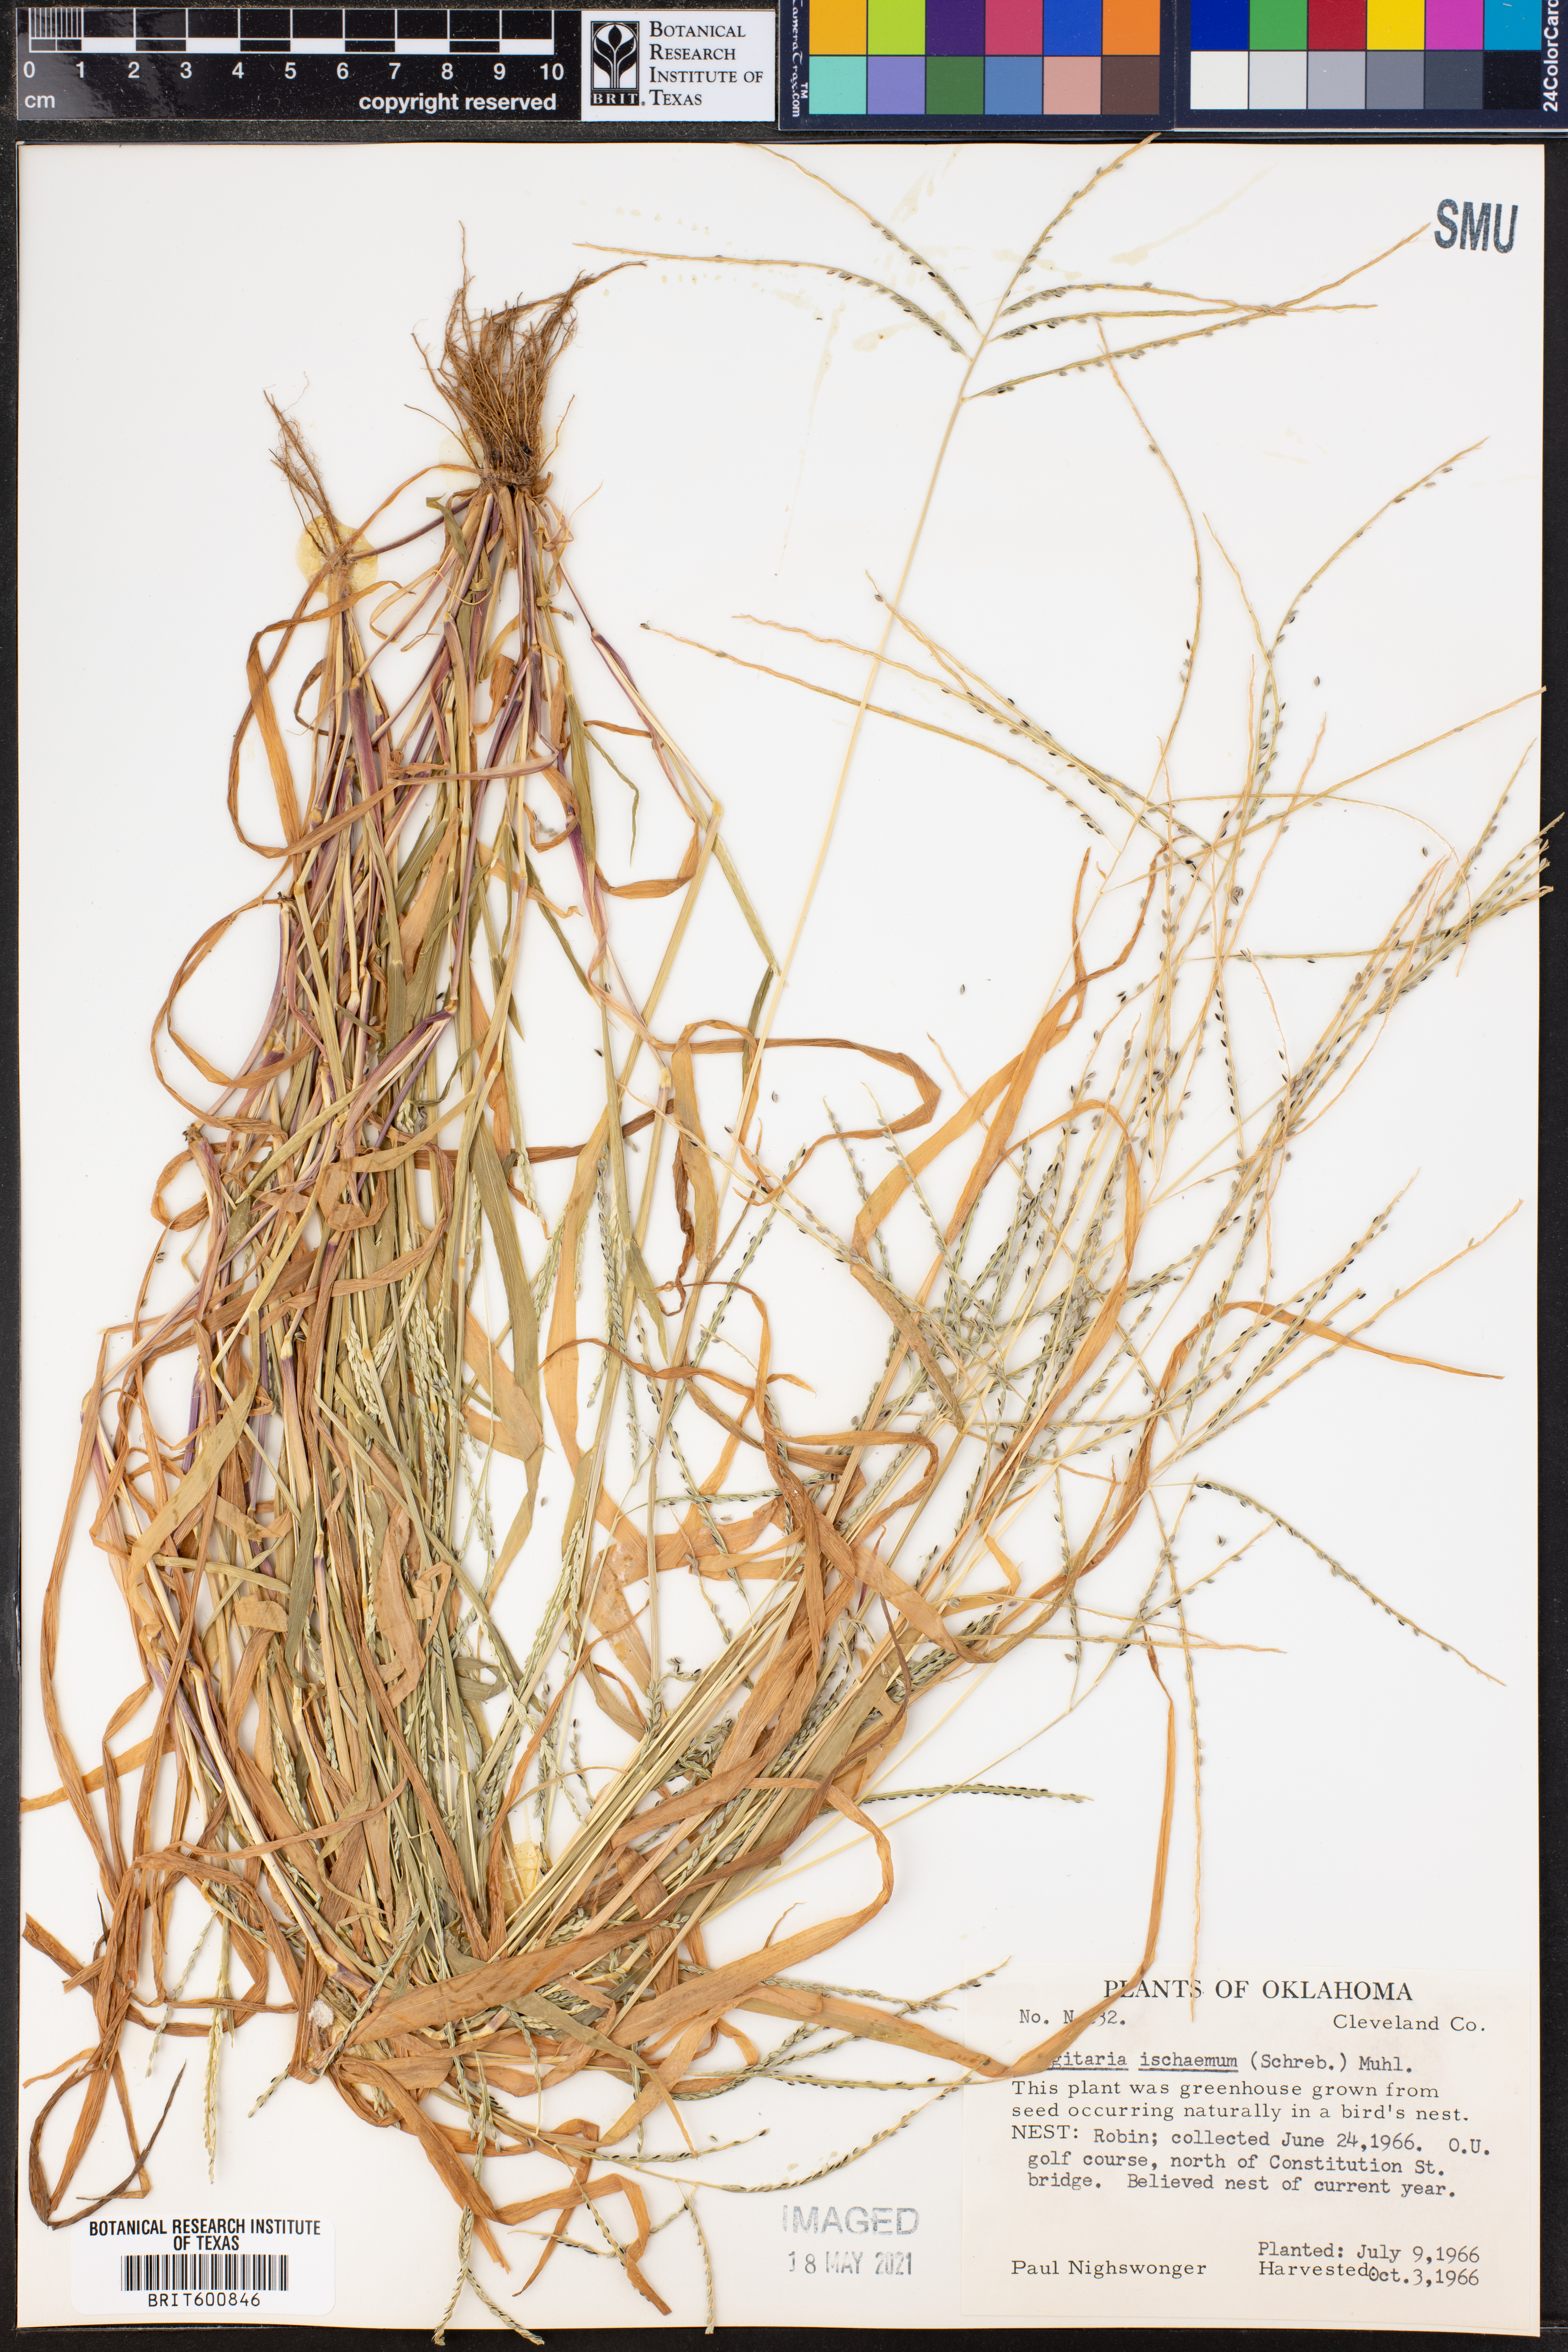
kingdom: Plantae
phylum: Tracheophyta
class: Liliopsida
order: Poales
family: Poaceae
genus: Digitaria
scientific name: Digitaria ischaemum
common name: Smooth crabgrass
